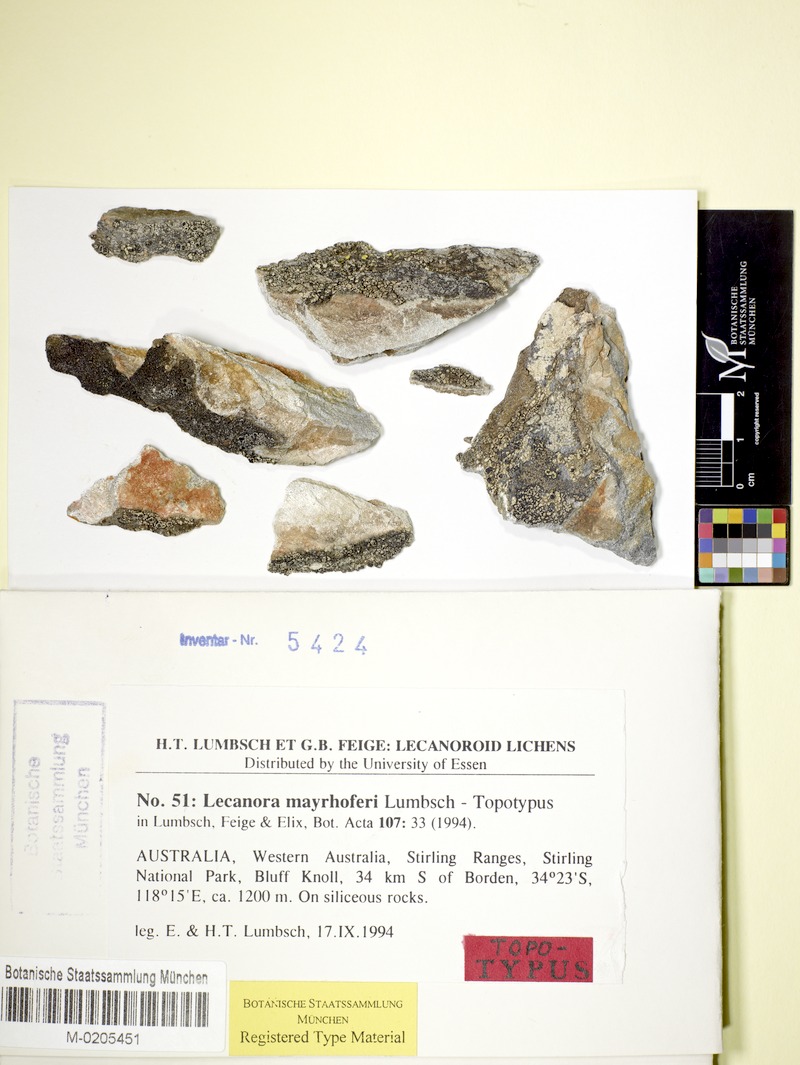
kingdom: Fungi
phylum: Ascomycota
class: Lecanoromycetes
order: Lecanorales
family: Lecanoraceae
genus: Lecanora
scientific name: Lecanora mayrhoferi
